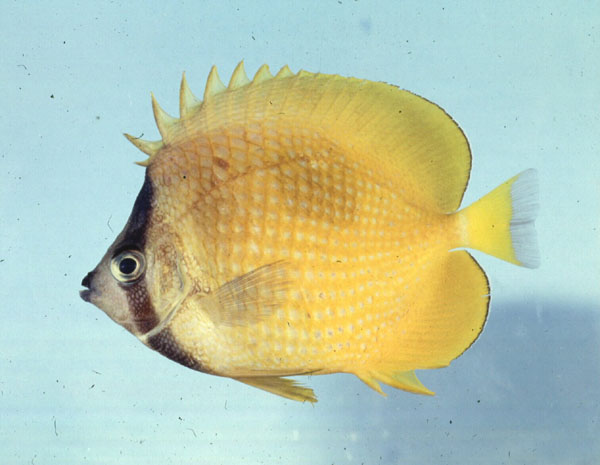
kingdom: Animalia
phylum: Chordata
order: Perciformes
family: Chaetodontidae
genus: Chaetodon
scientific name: Chaetodon kleinii
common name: Klein's butterflyfish
